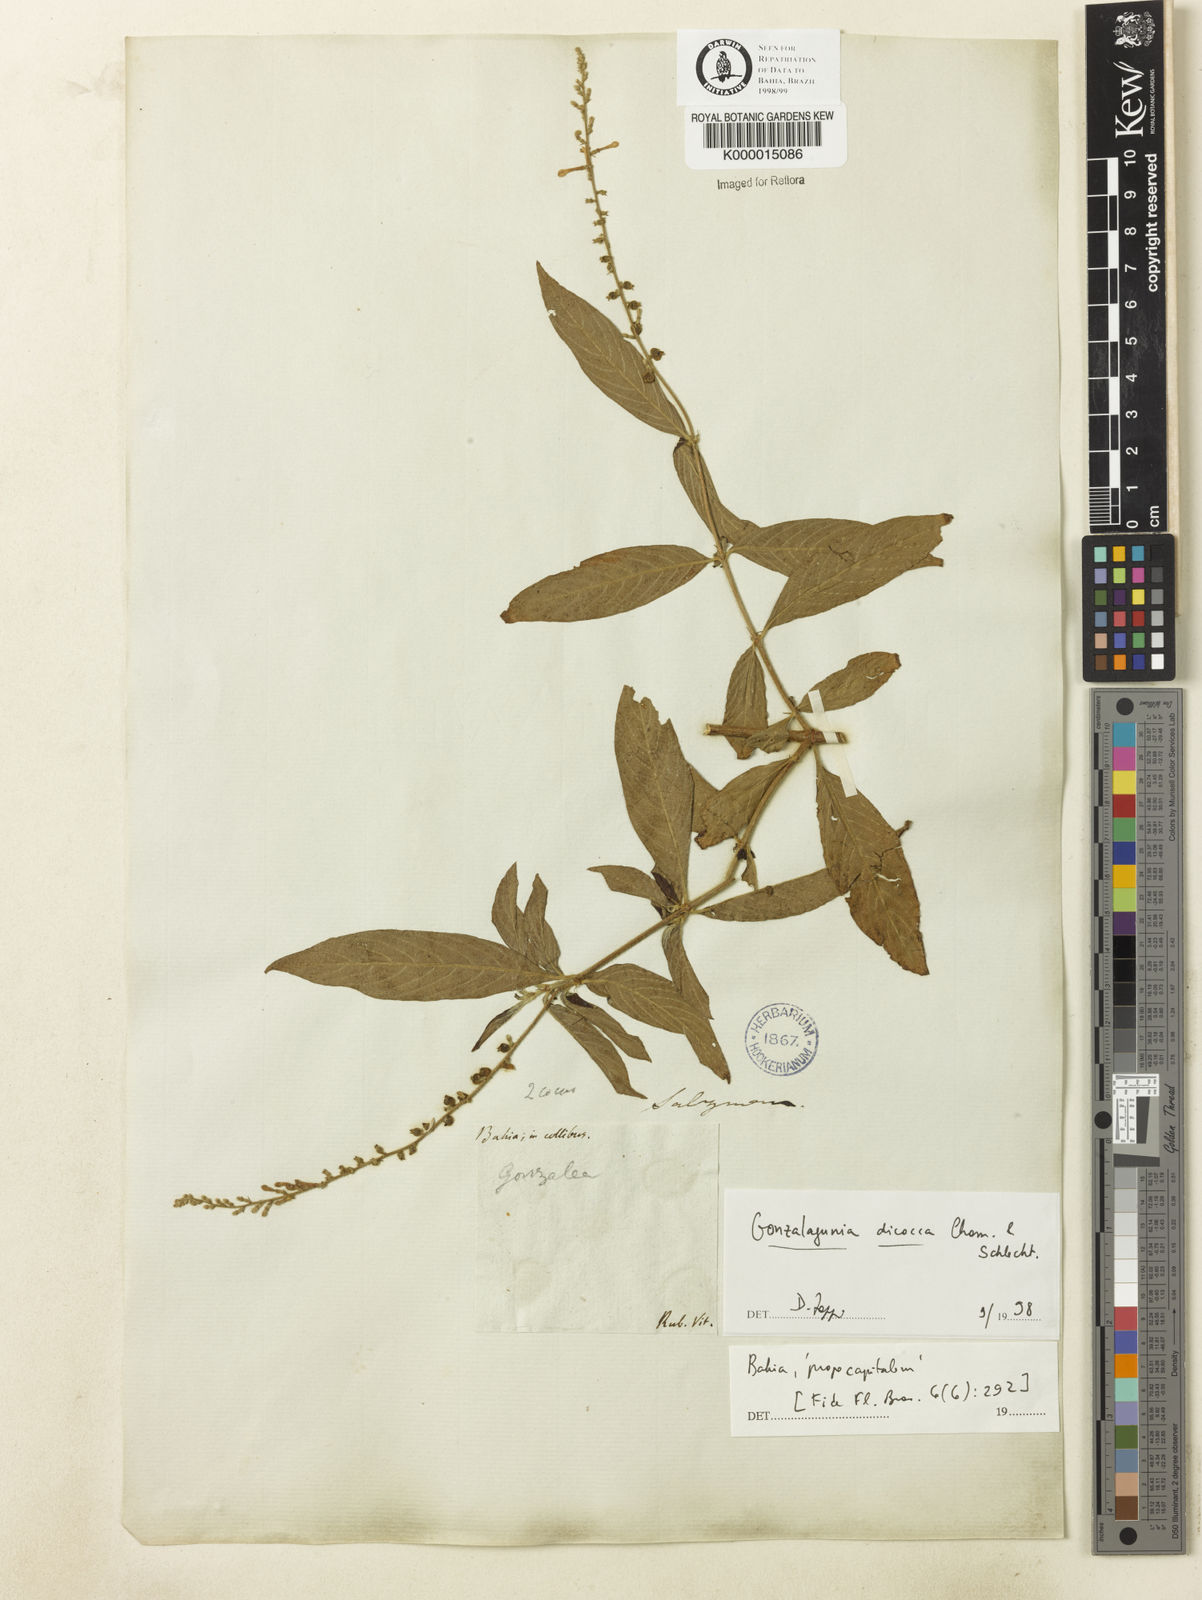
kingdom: Plantae
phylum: Tracheophyta
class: Magnoliopsida
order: Gentianales
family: Rubiaceae
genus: Gonzalagunia
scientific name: Gonzalagunia dicocca
